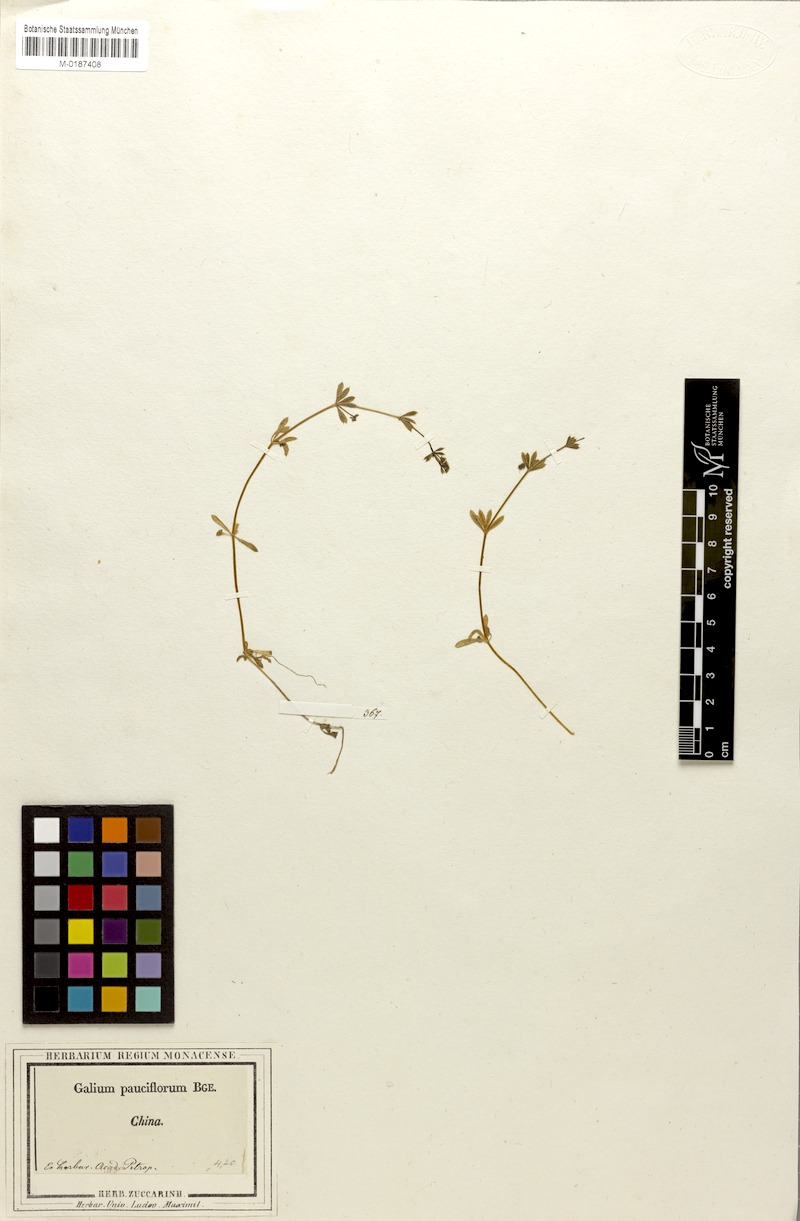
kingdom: Plantae
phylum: Tracheophyta
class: Magnoliopsida
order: Gentianales
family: Rubiaceae
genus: Galium
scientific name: Galium aparine
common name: Cleavers
